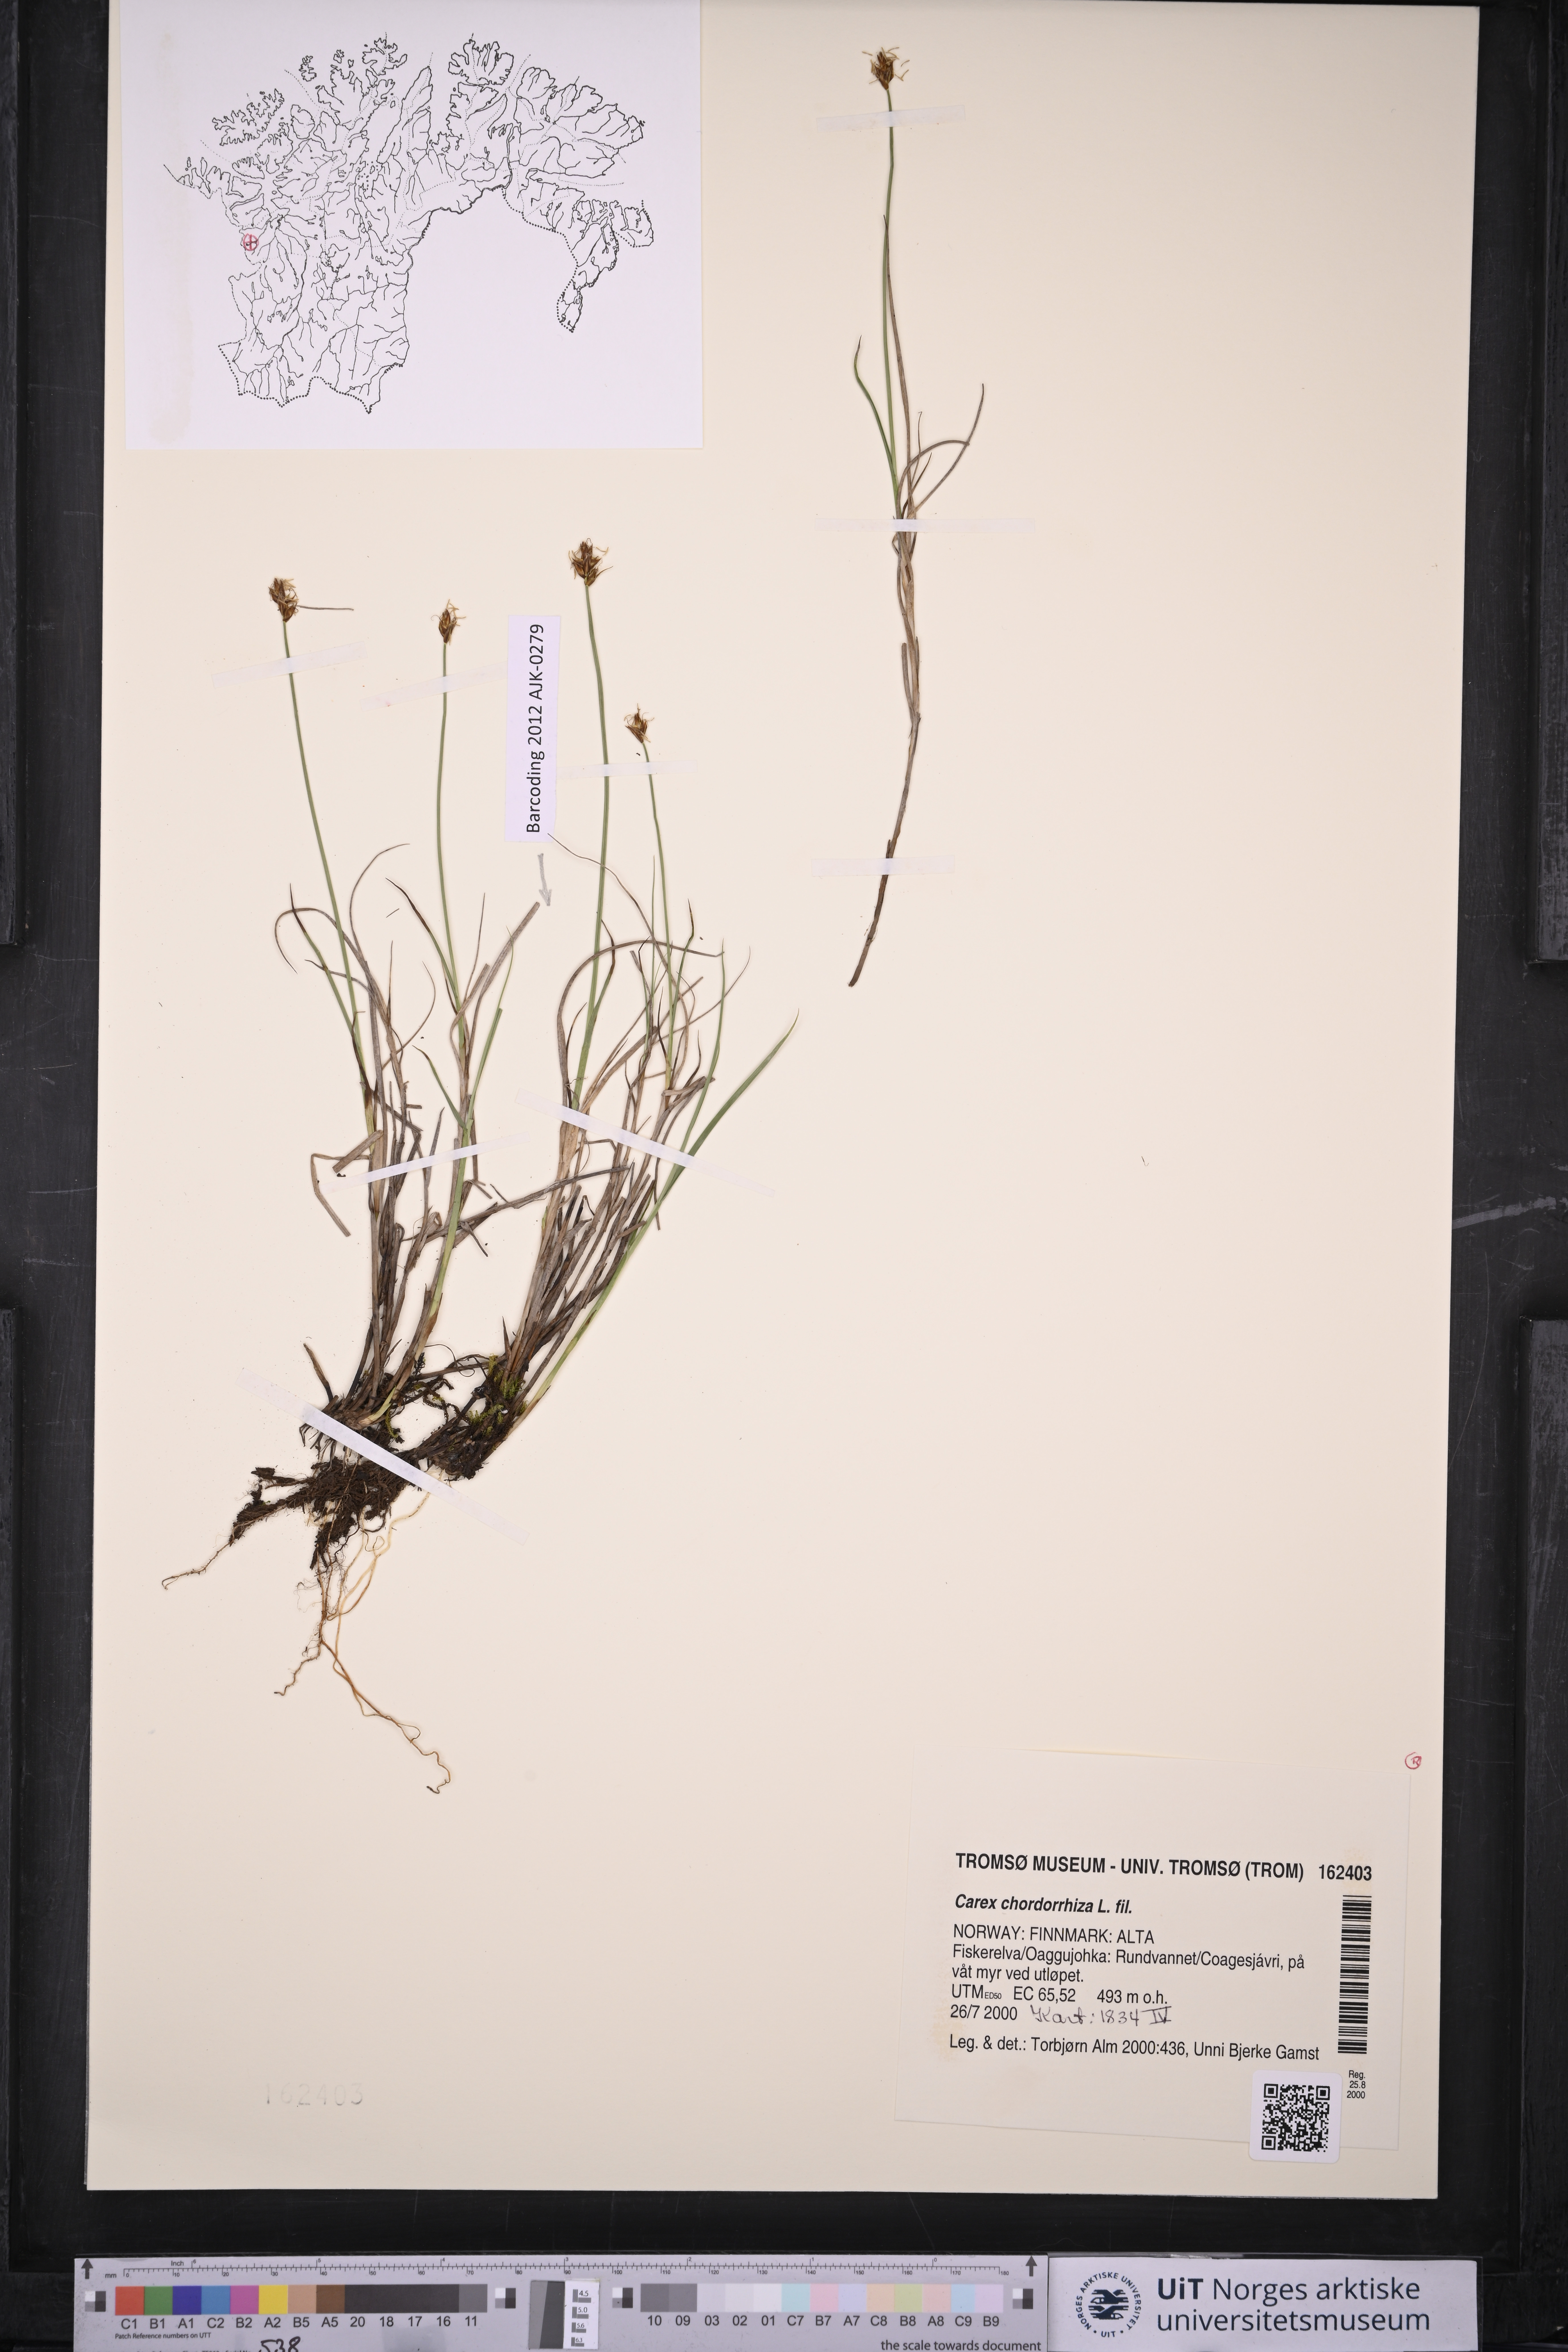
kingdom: Plantae
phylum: Tracheophyta
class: Liliopsida
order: Poales
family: Cyperaceae
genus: Carex
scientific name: Carex chordorrhiza
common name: String sedge
